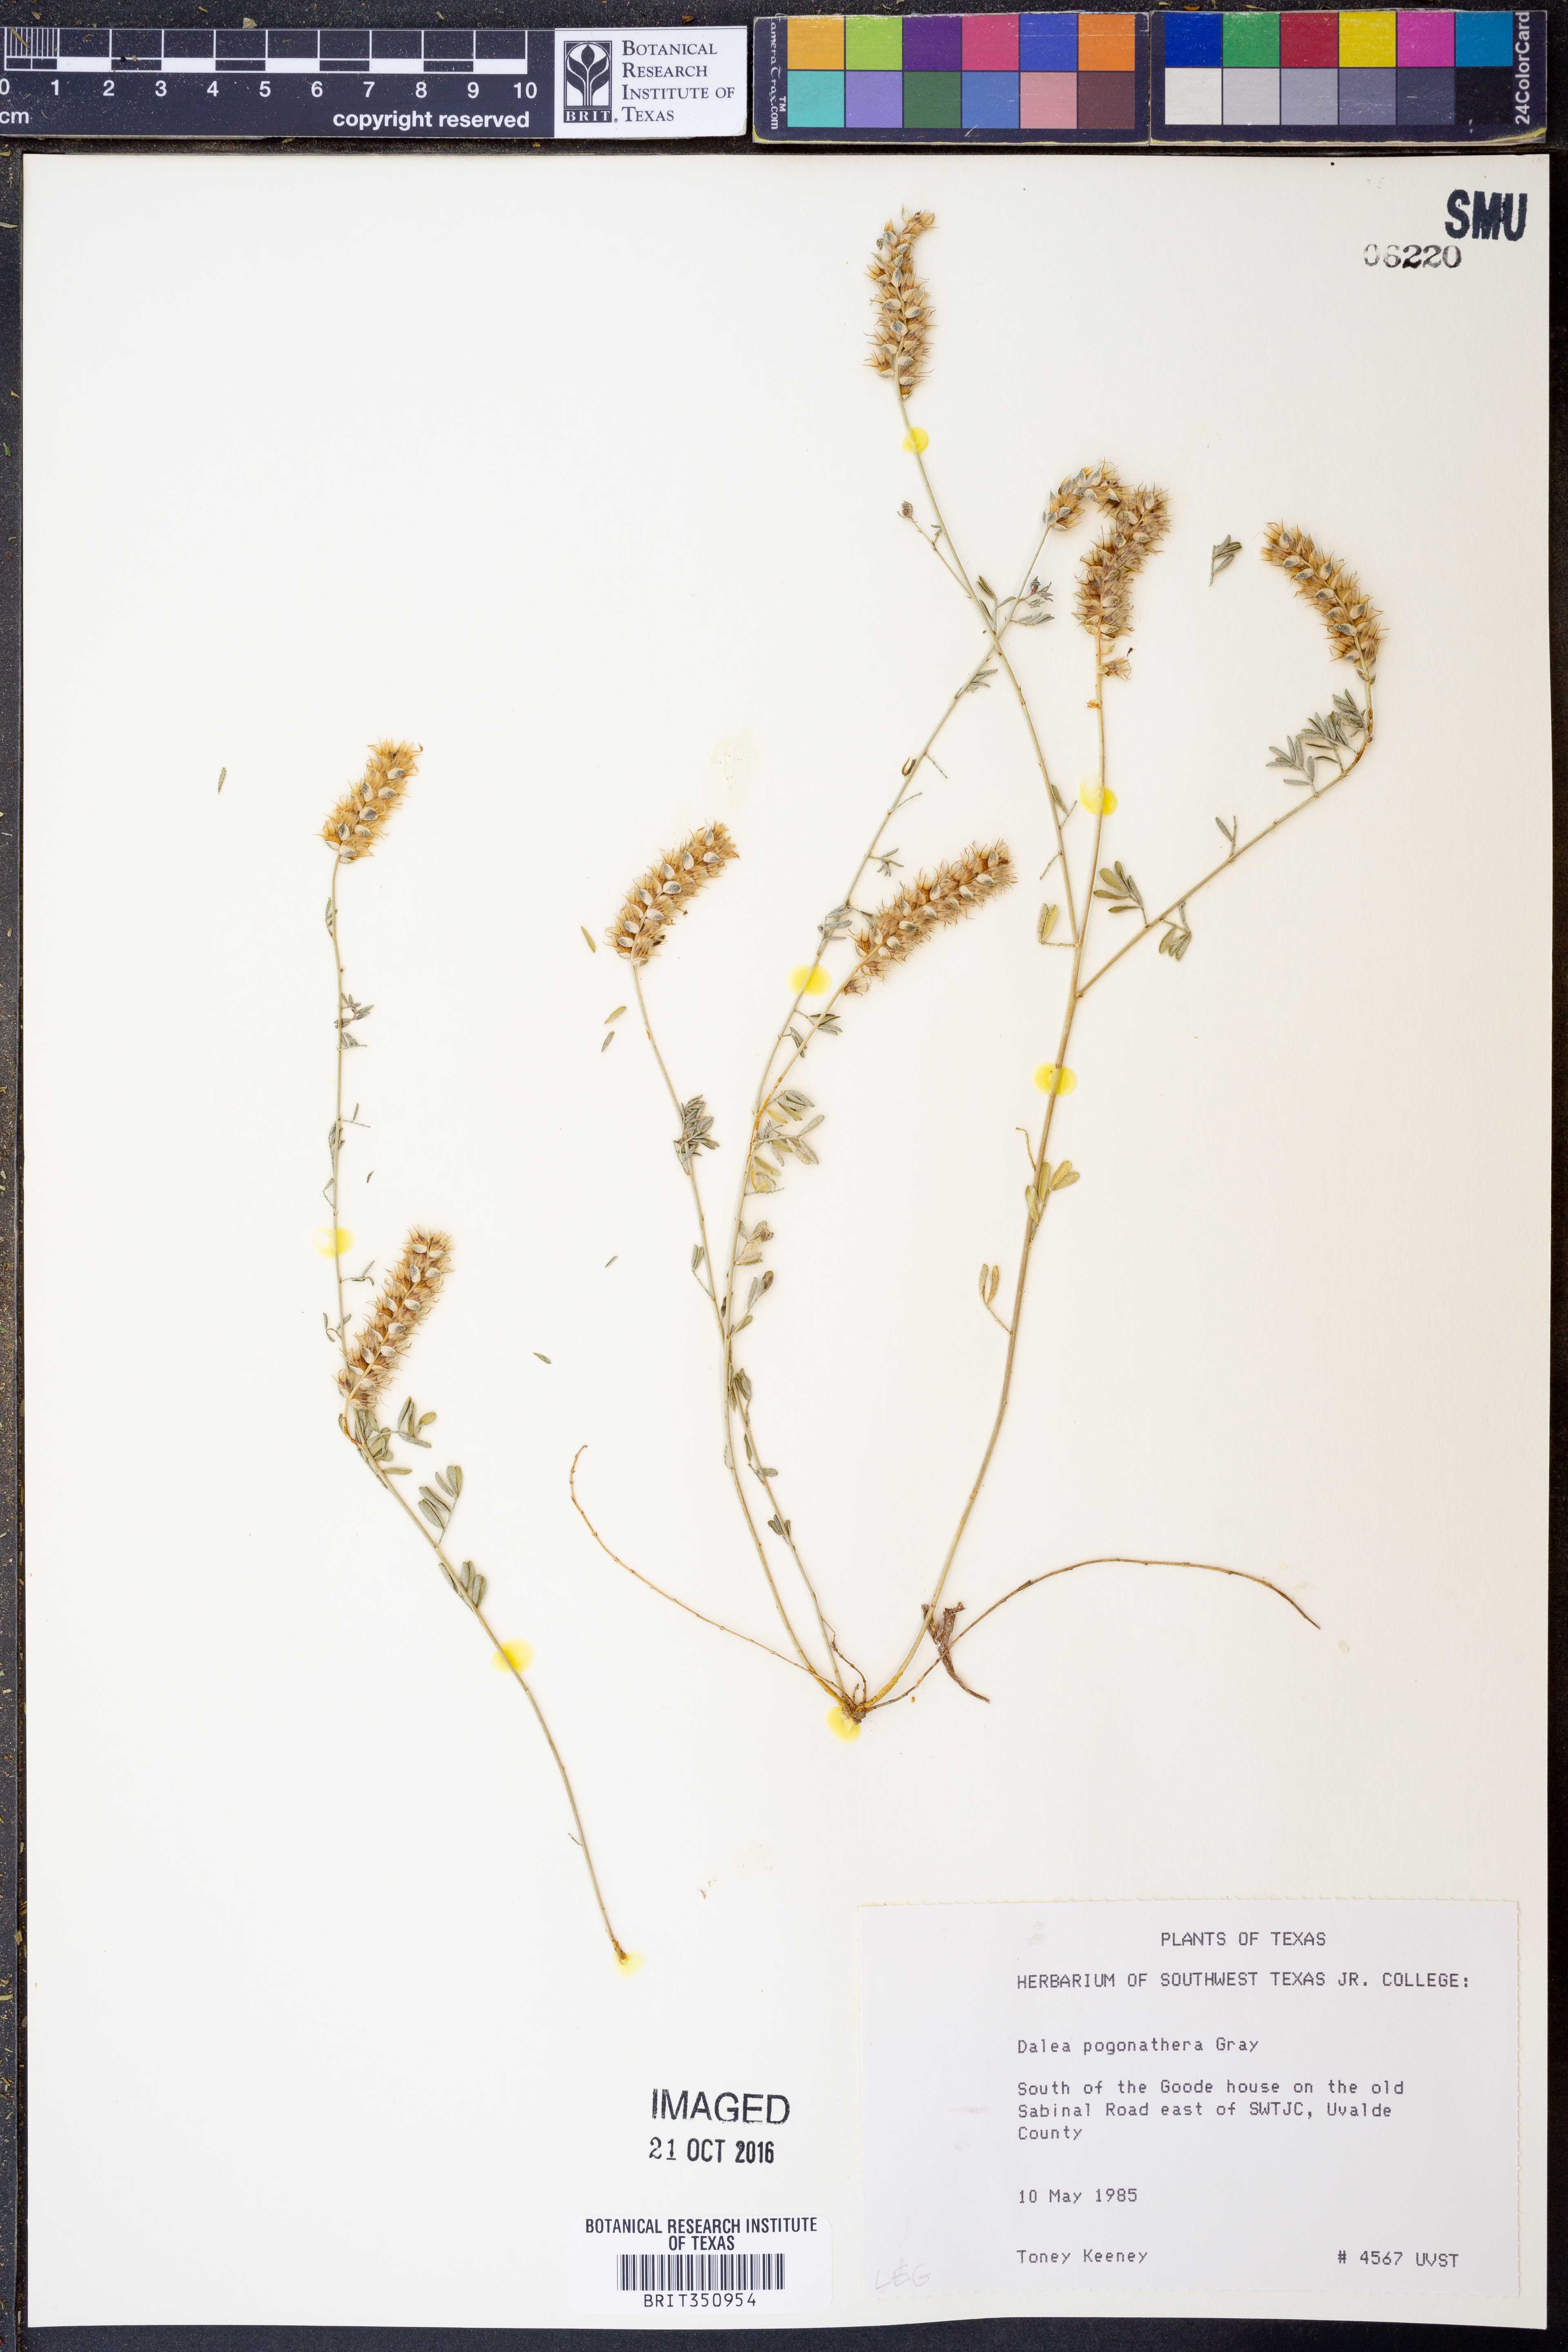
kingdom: Plantae
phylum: Tracheophyta
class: Magnoliopsida
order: Fabales
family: Fabaceae
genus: Dalea
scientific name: Dalea pogonathera
